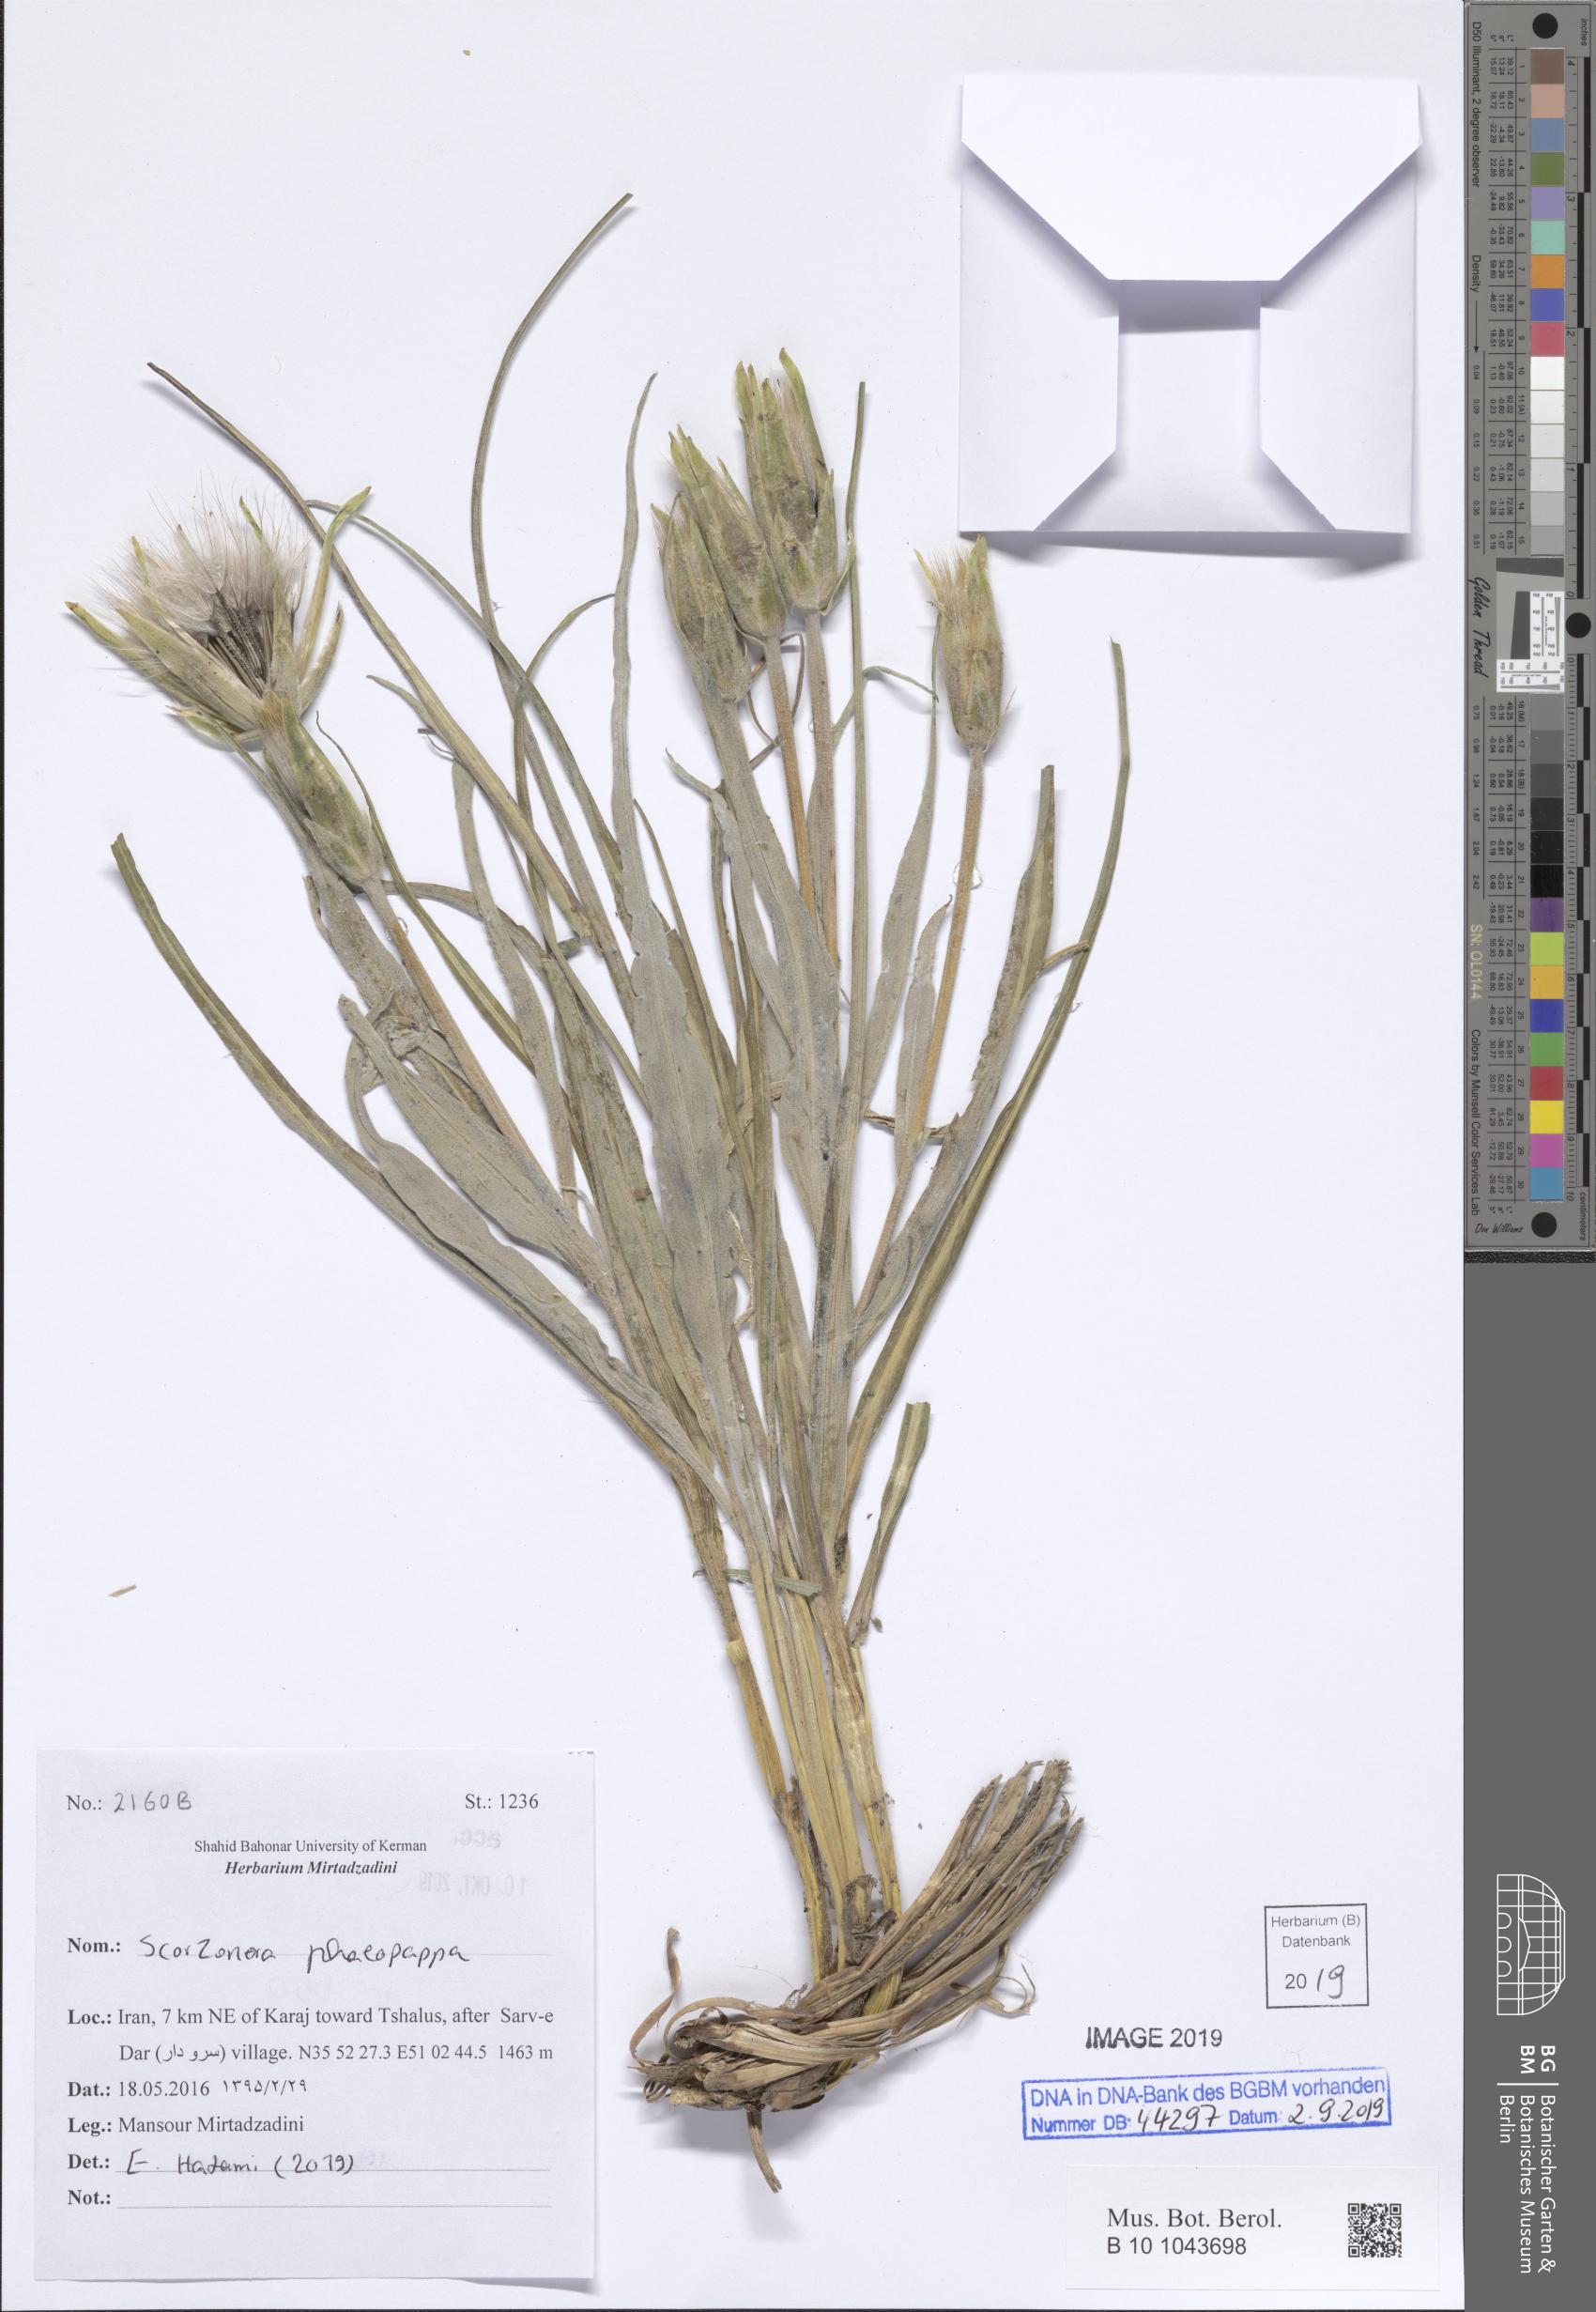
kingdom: Plantae
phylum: Tracheophyta
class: Magnoliopsida
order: Asterales
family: Asteraceae
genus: Pseudopodospermum
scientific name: Pseudopodospermum phaeopappum
